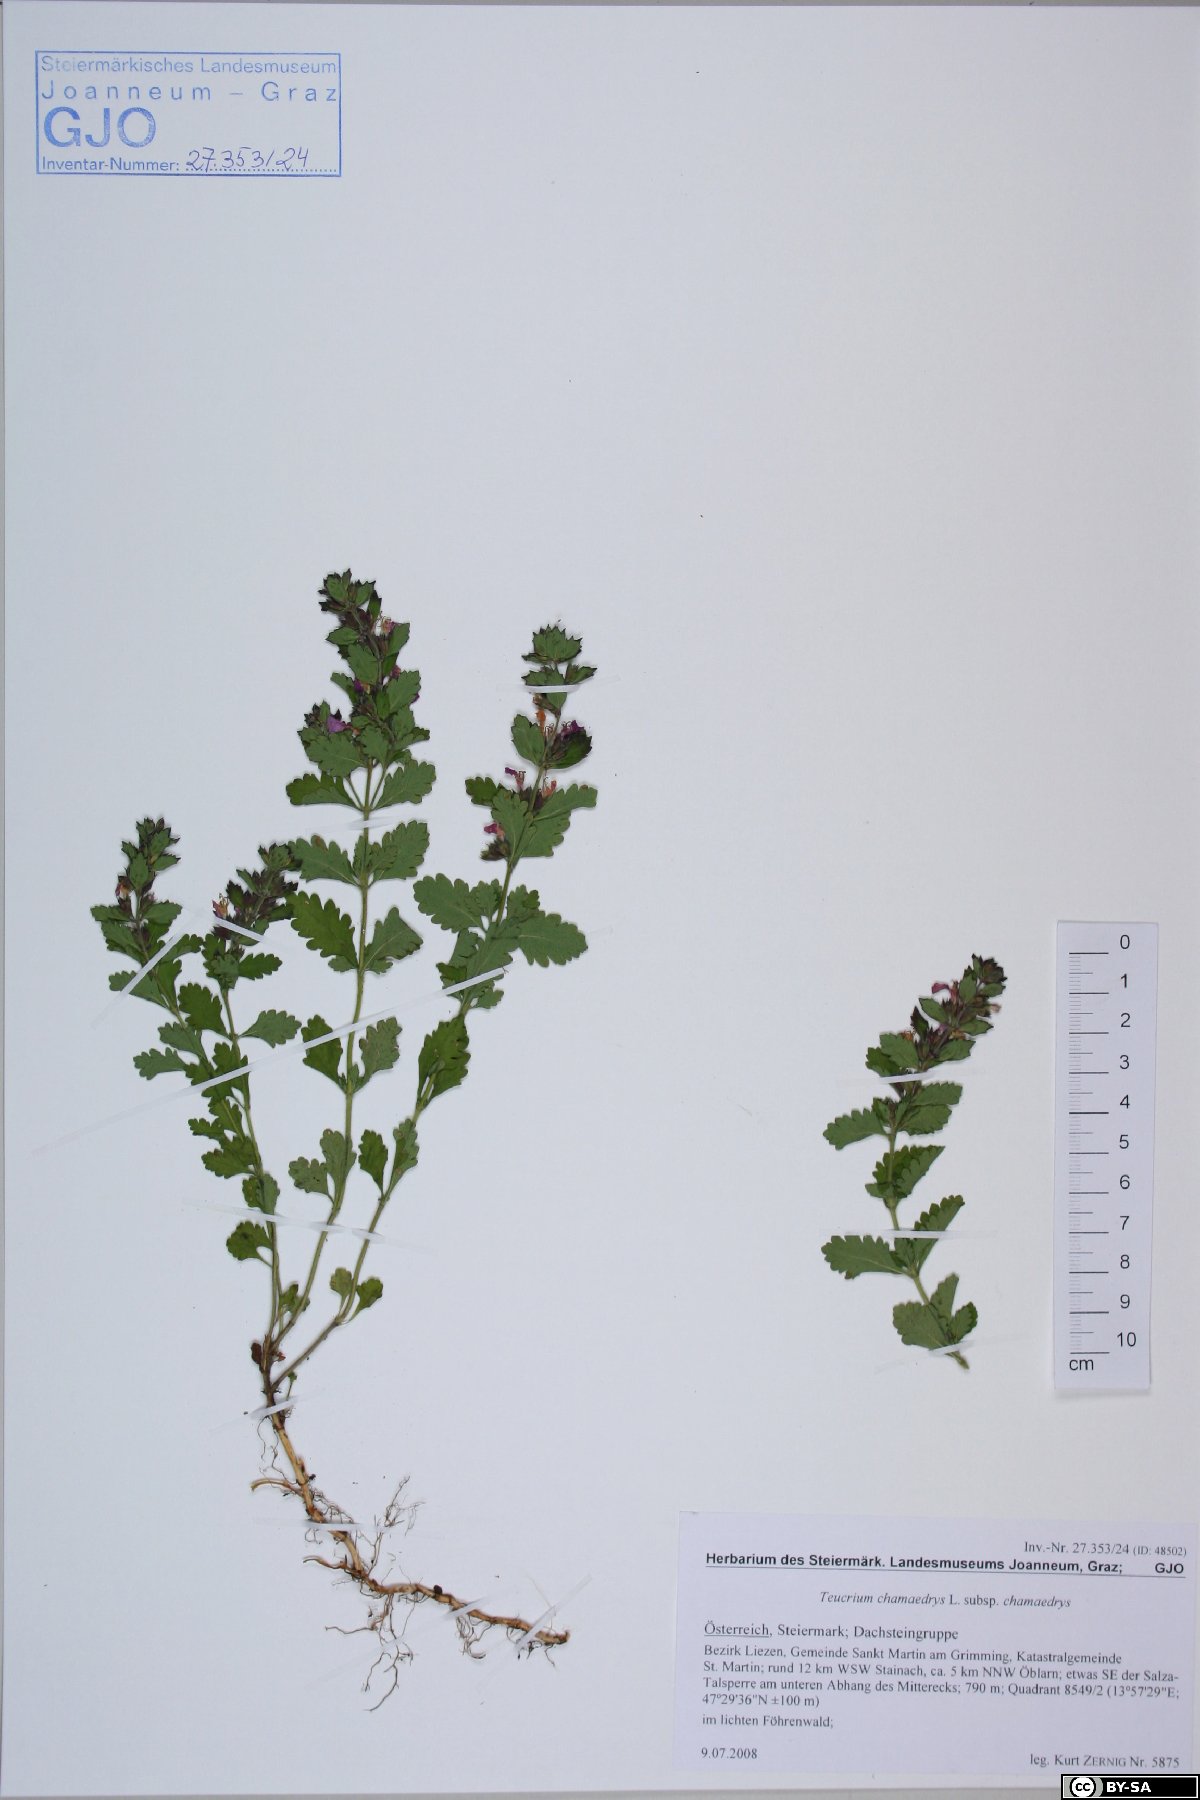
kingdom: Plantae
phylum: Tracheophyta
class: Magnoliopsida
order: Lamiales
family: Lamiaceae
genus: Teucrium
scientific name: Teucrium chamaedrys
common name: Wall germander
